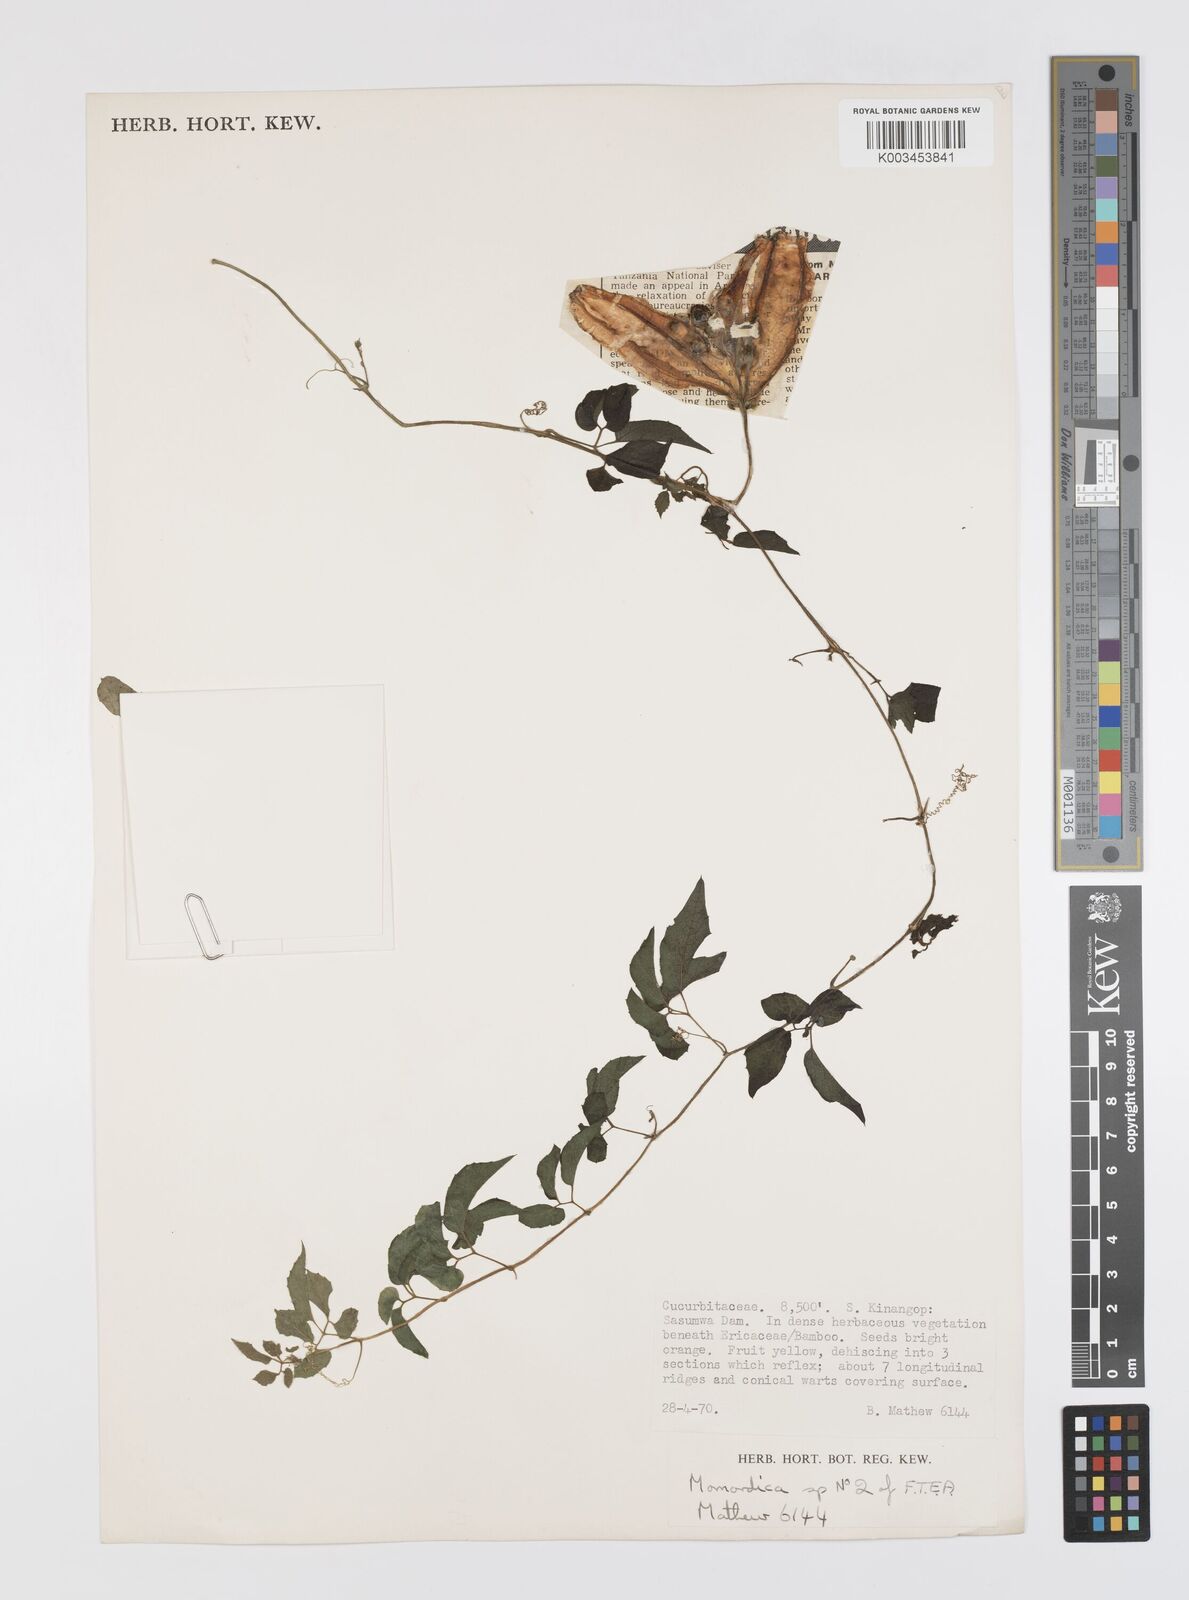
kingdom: Plantae
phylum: Tracheophyta
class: Magnoliopsida
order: Cucurbitales
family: Cucurbitaceae
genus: Momordica
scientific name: Momordica friesiorum
